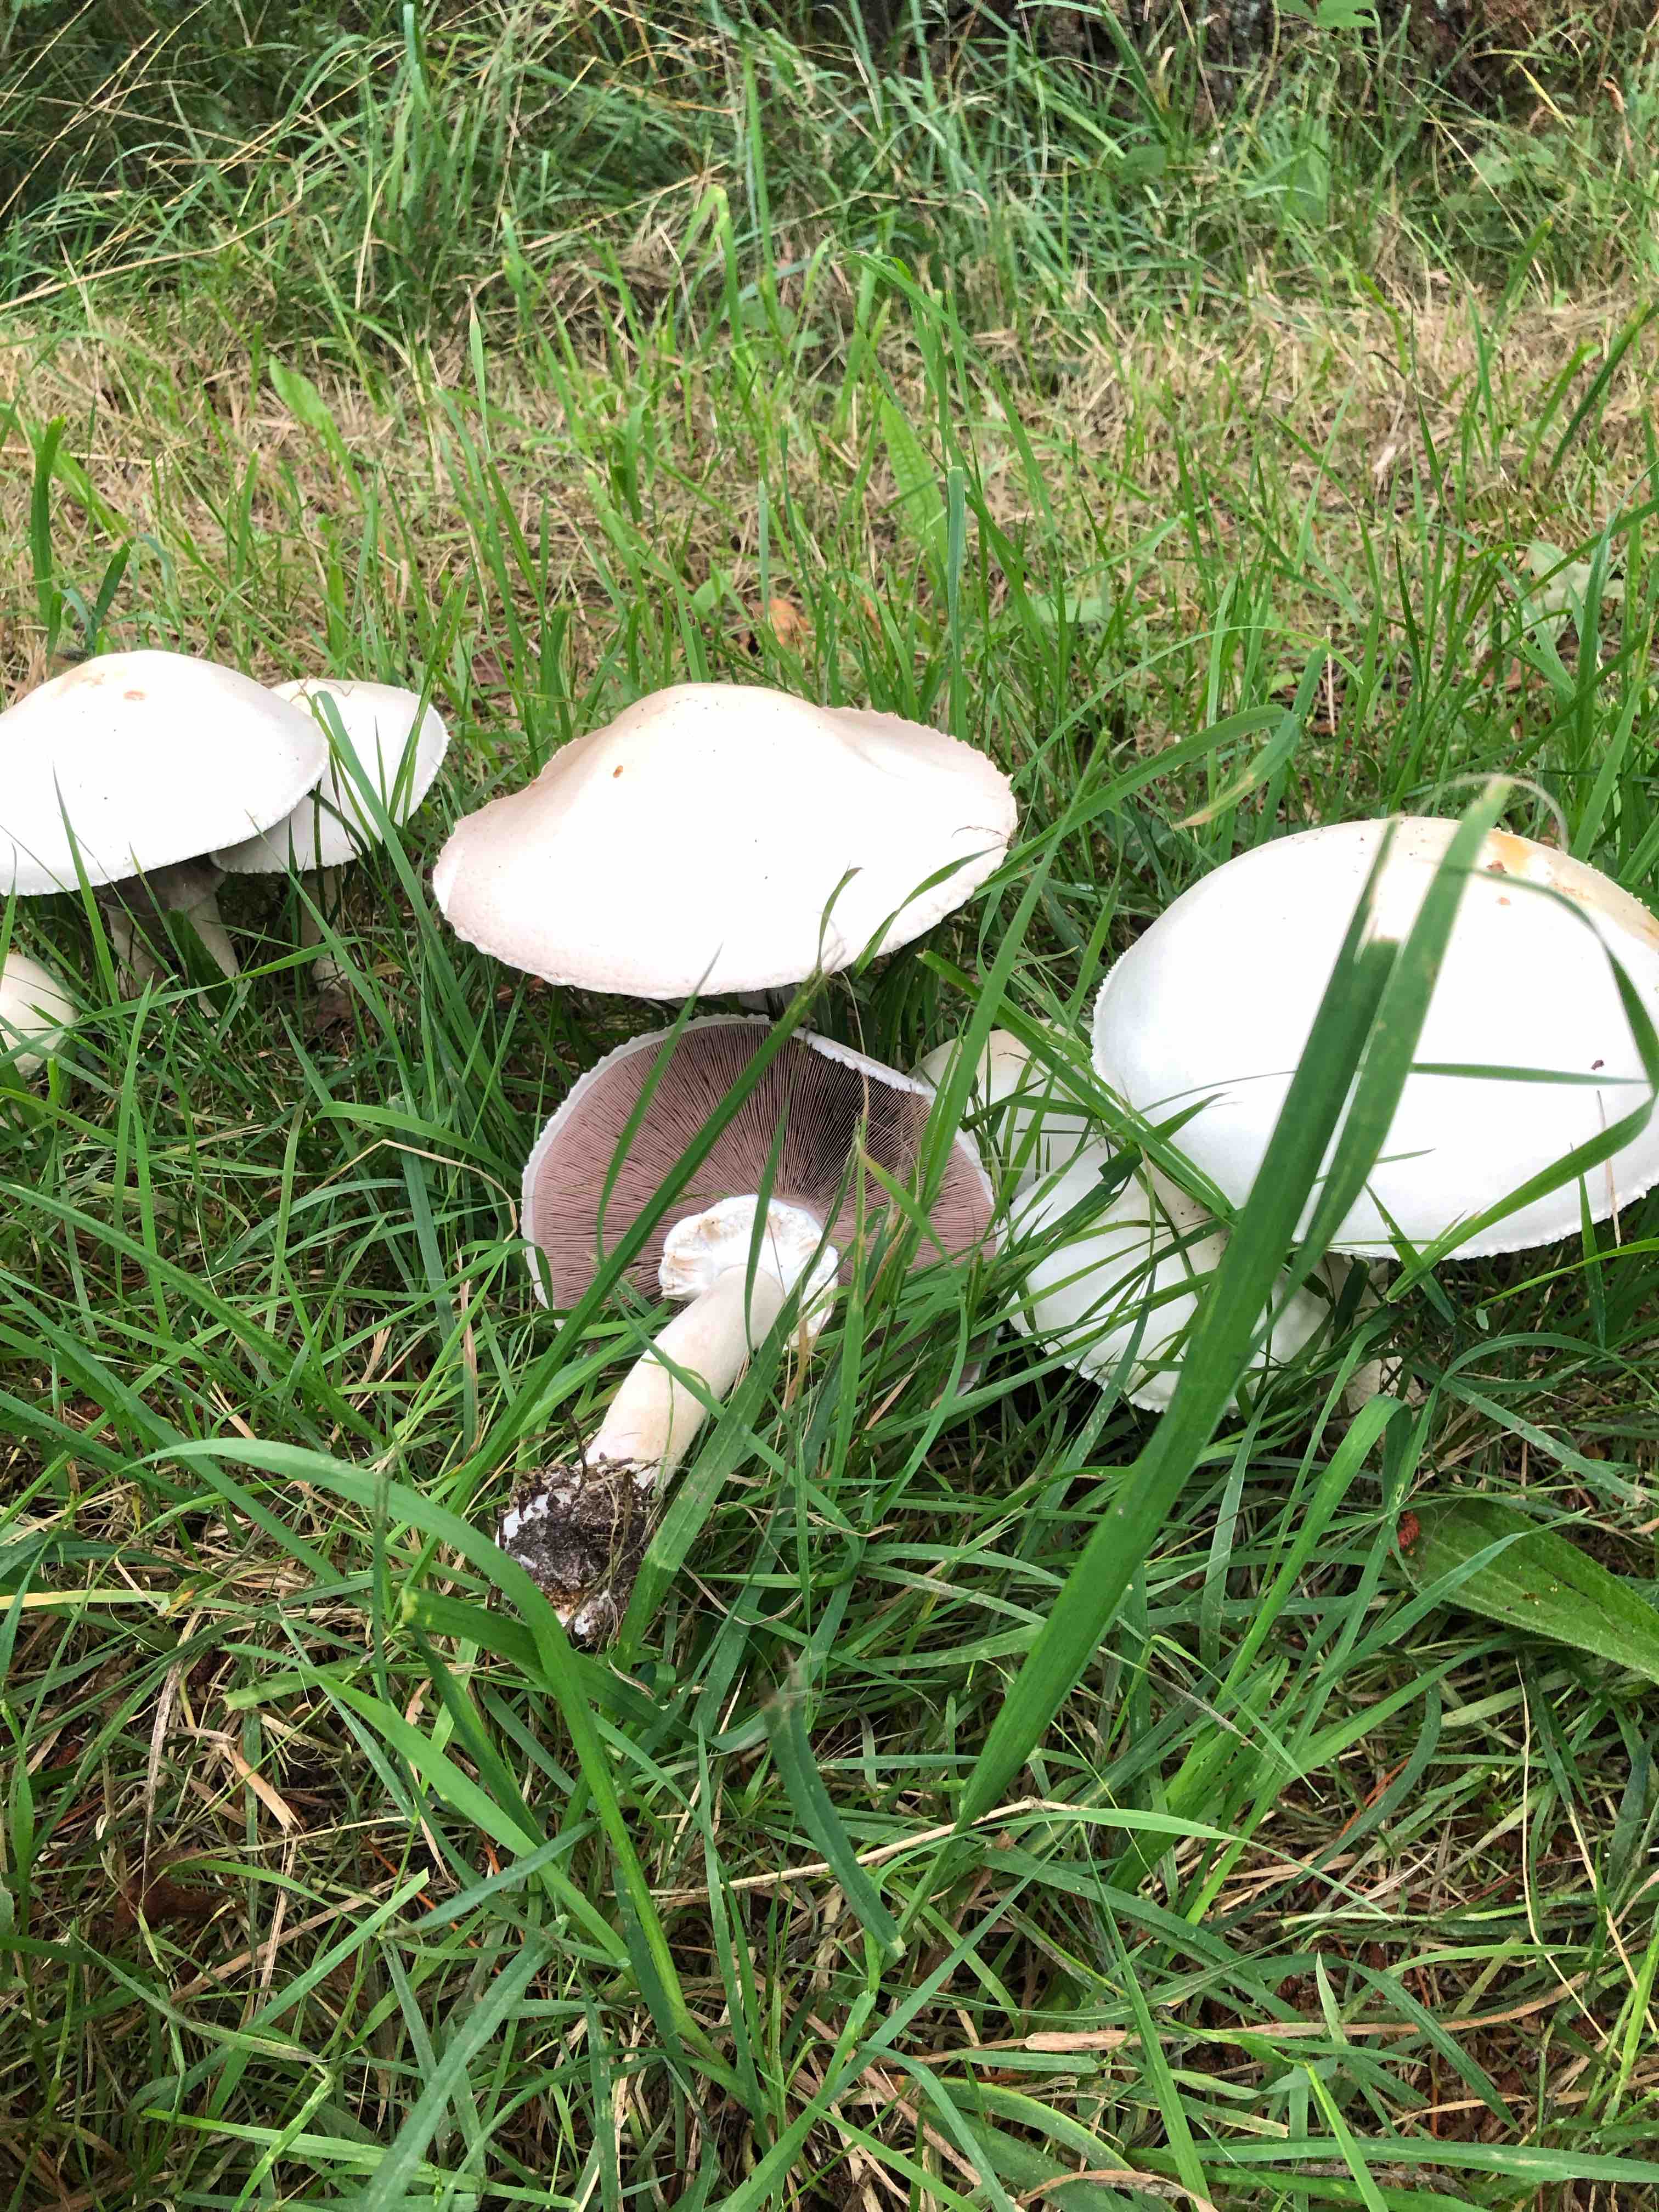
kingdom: Fungi
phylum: Basidiomycota
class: Agaricomycetes
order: Agaricales
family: Agaricaceae
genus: Agaricus
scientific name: Agaricus arvensis
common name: ager-champignon
